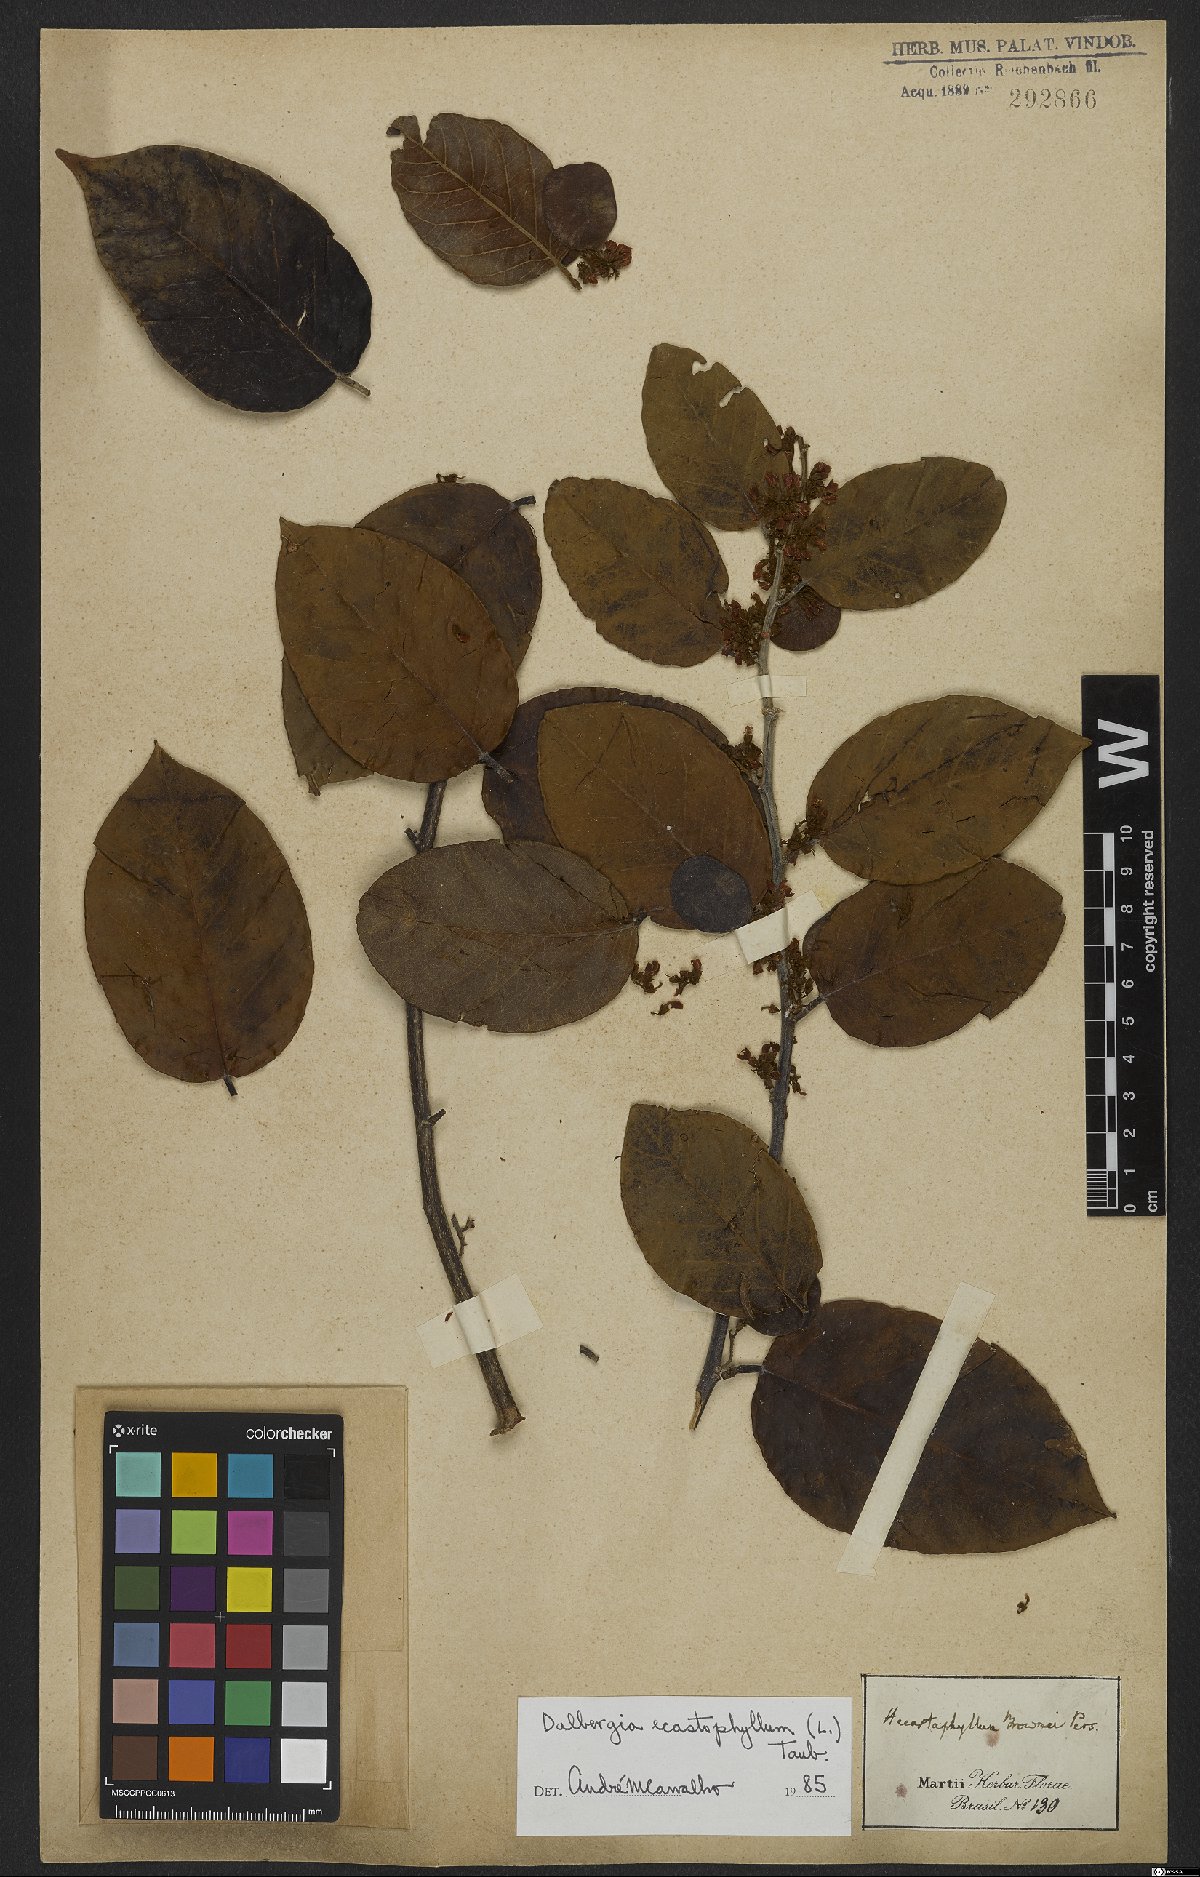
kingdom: Plantae
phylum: Tracheophyta
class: Magnoliopsida
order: Fabales
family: Fabaceae
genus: Dalbergia
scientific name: Dalbergia ecastaphyllum
